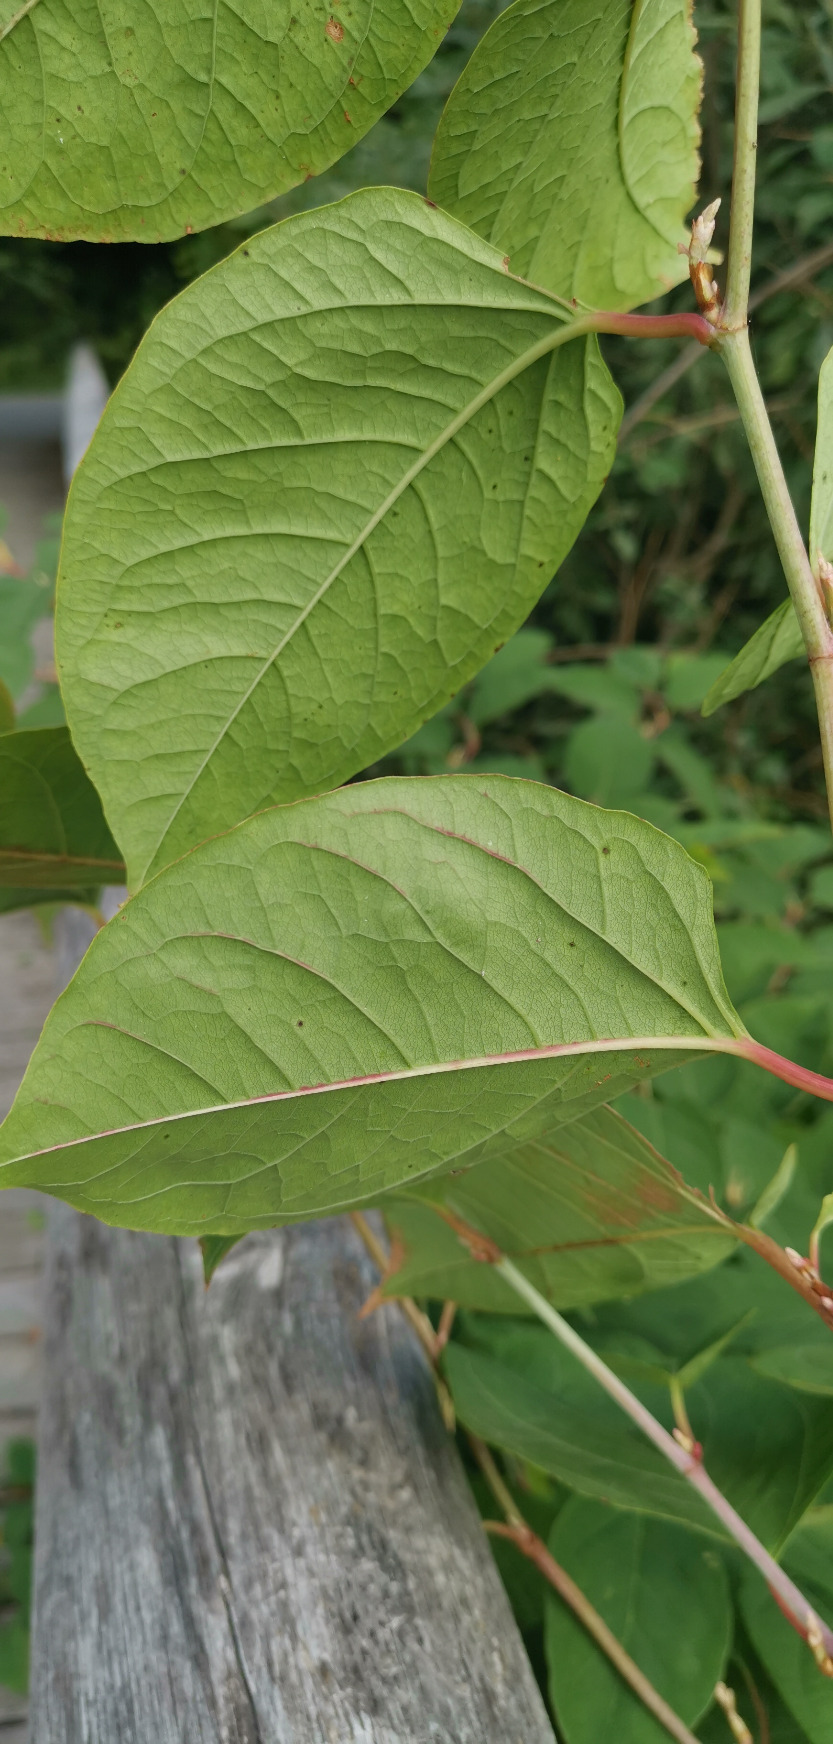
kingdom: Plantae
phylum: Tracheophyta
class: Magnoliopsida
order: Caryophyllales
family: Polygonaceae
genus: Reynoutria
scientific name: Reynoutria japonica
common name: Japan-pileurt
